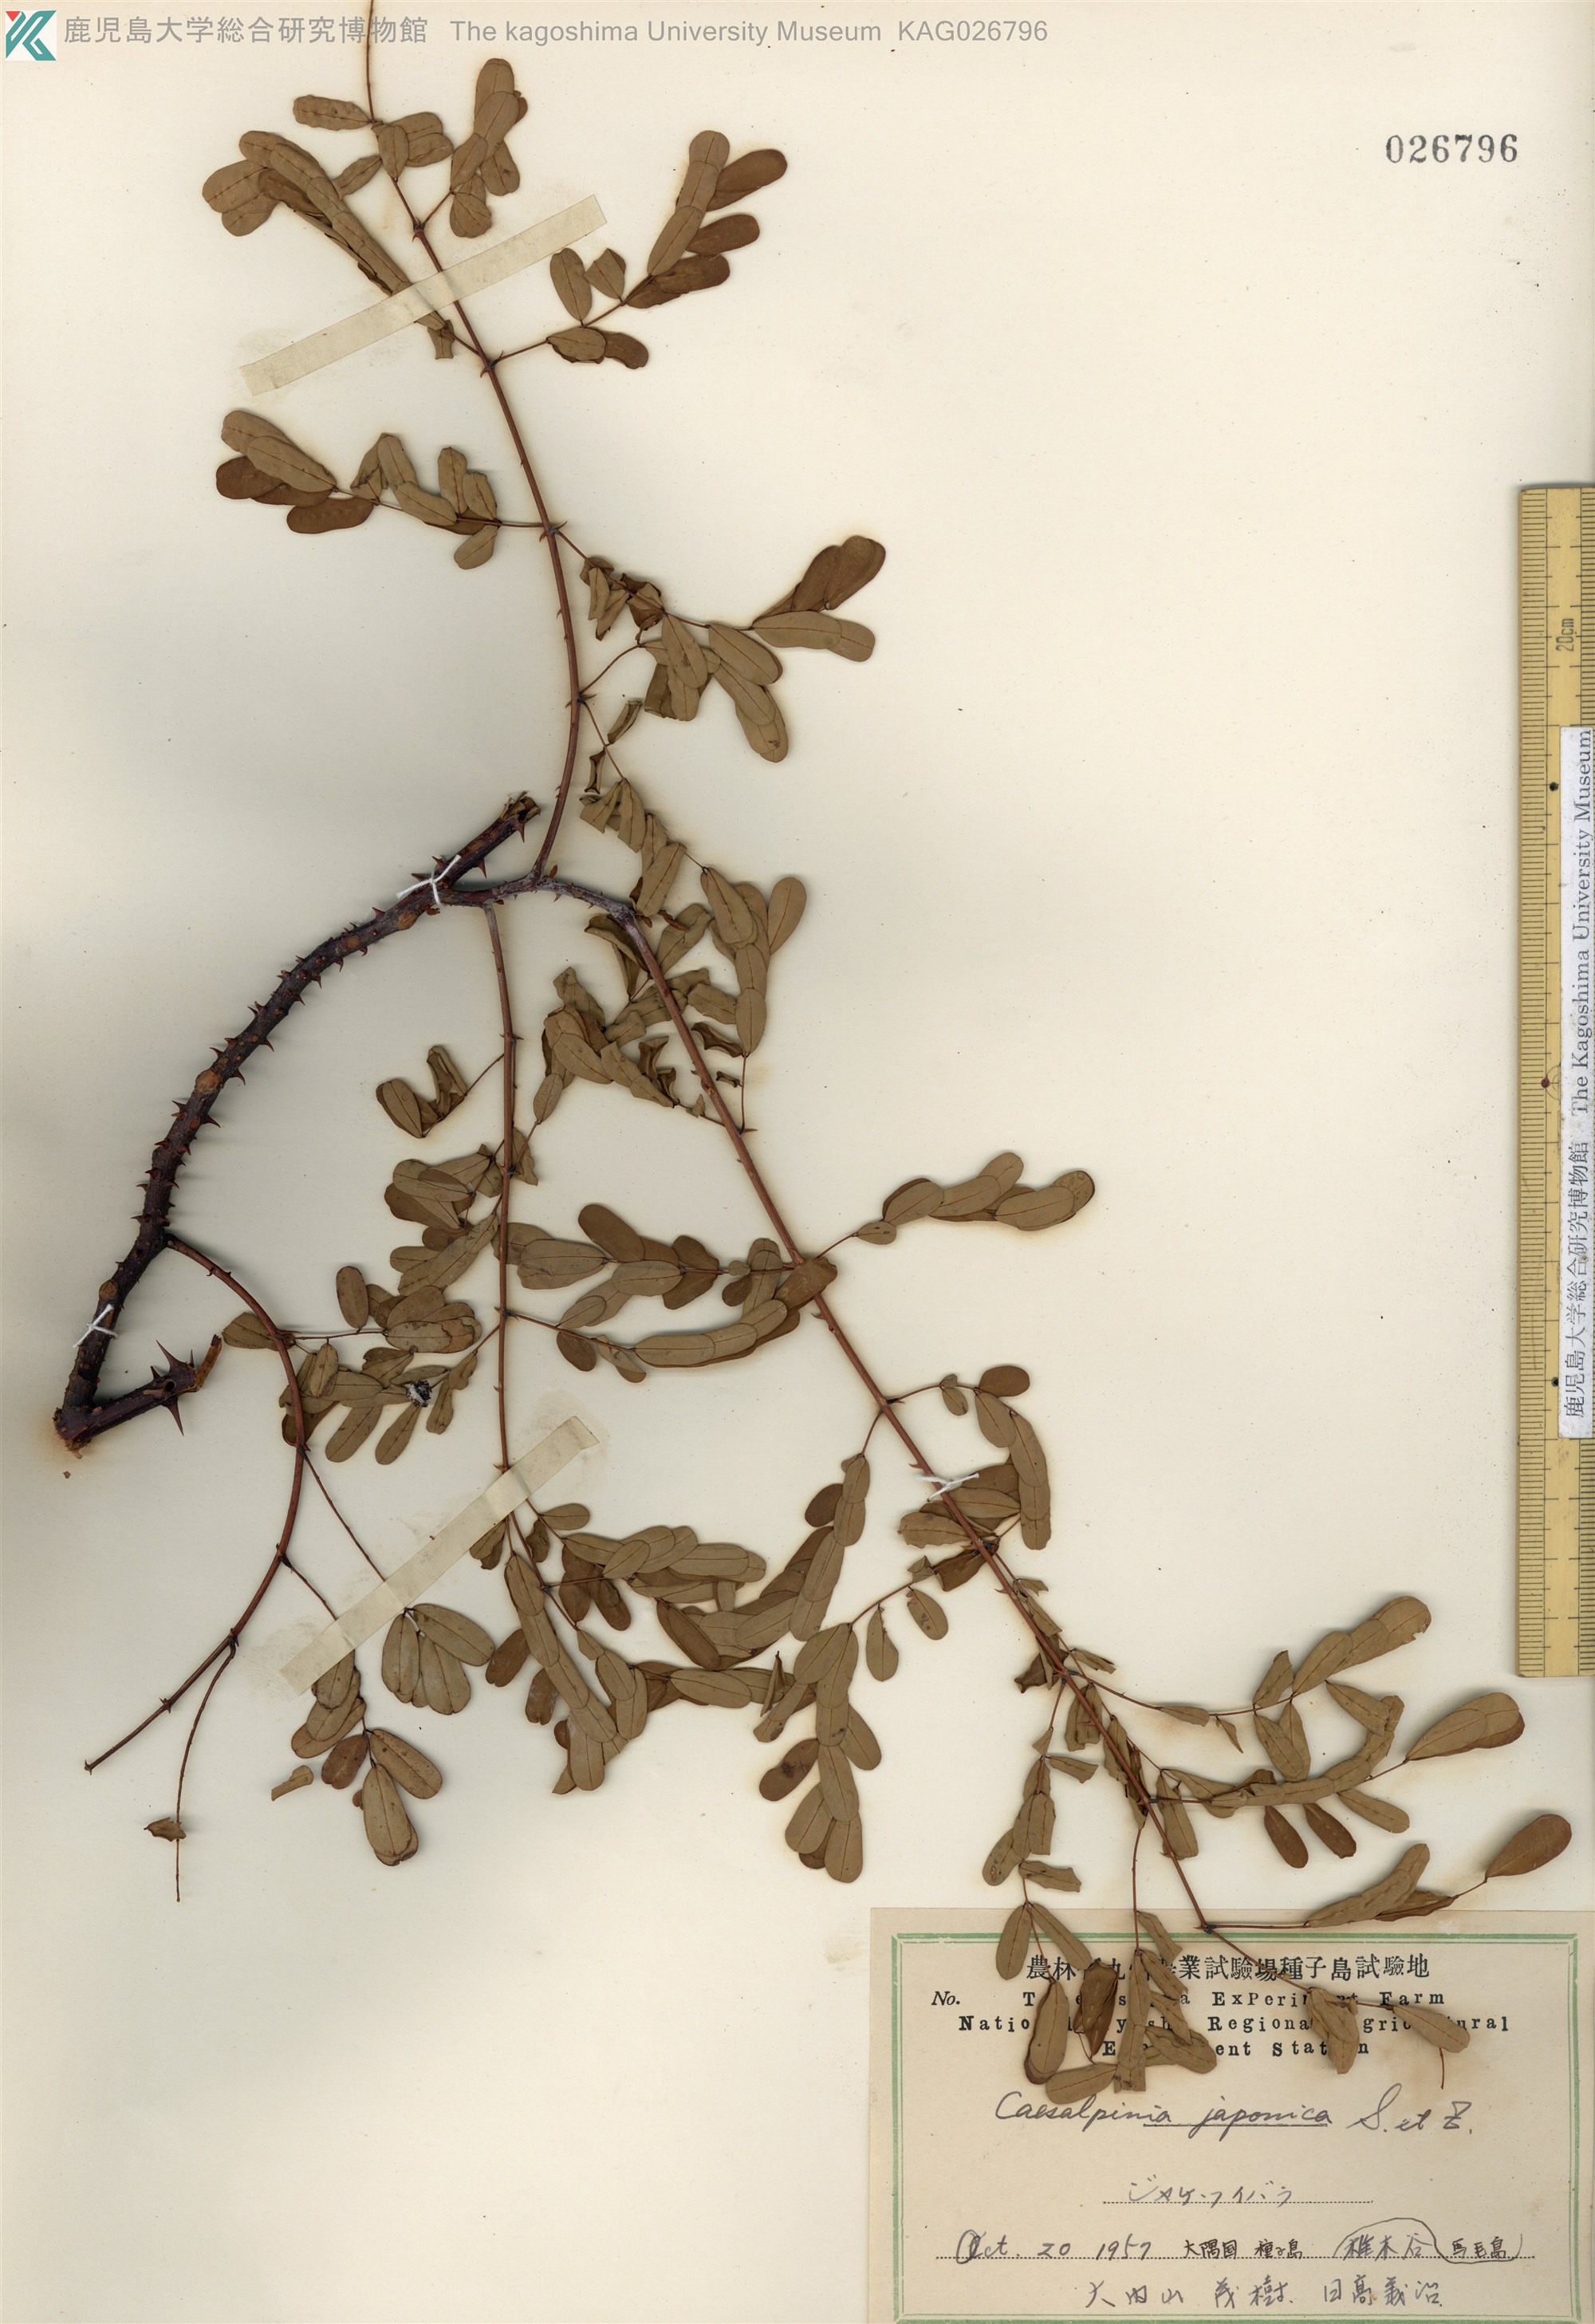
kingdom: Plantae
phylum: Tracheophyta
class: Magnoliopsida
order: Fabales
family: Fabaceae
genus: Biancaea
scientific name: Biancaea decapetala
